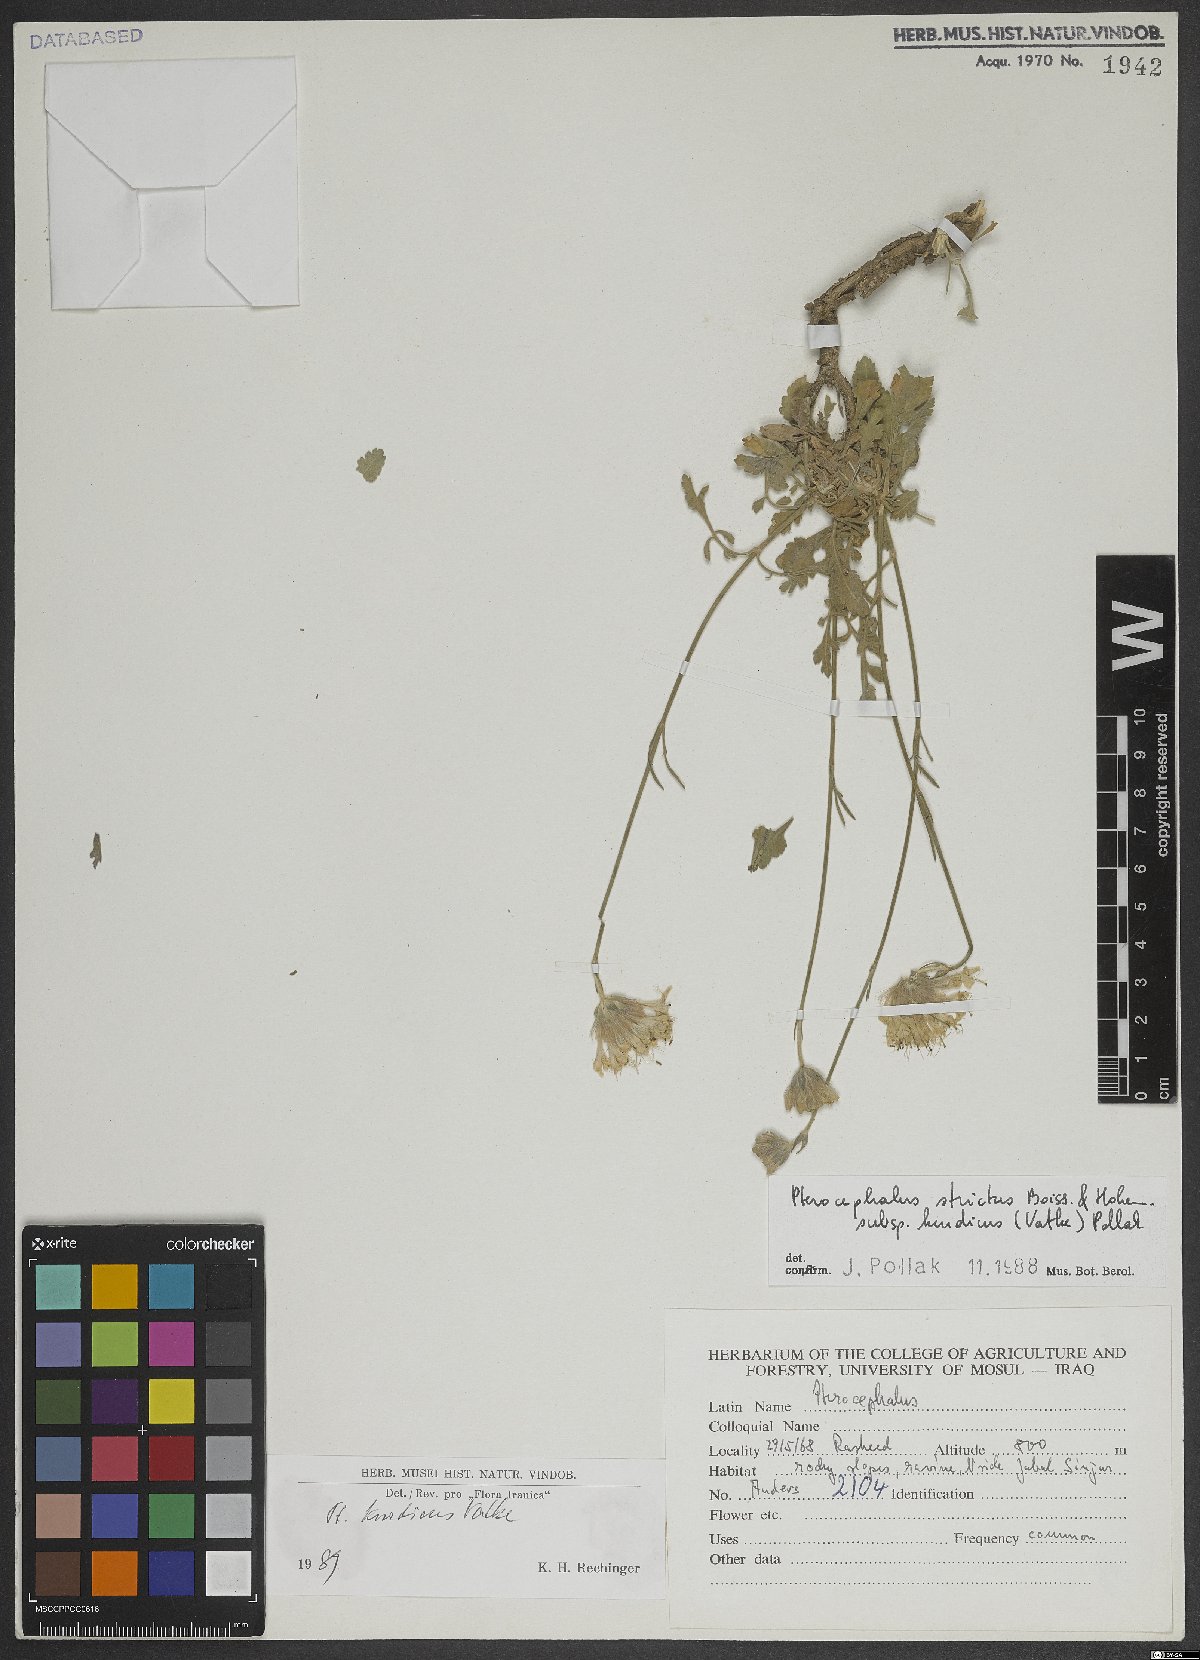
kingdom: Plantae
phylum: Tracheophyta
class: Magnoliopsida
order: Dipsacales
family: Caprifoliaceae
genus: Pterocephalus
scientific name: Pterocephalus kurdicus
